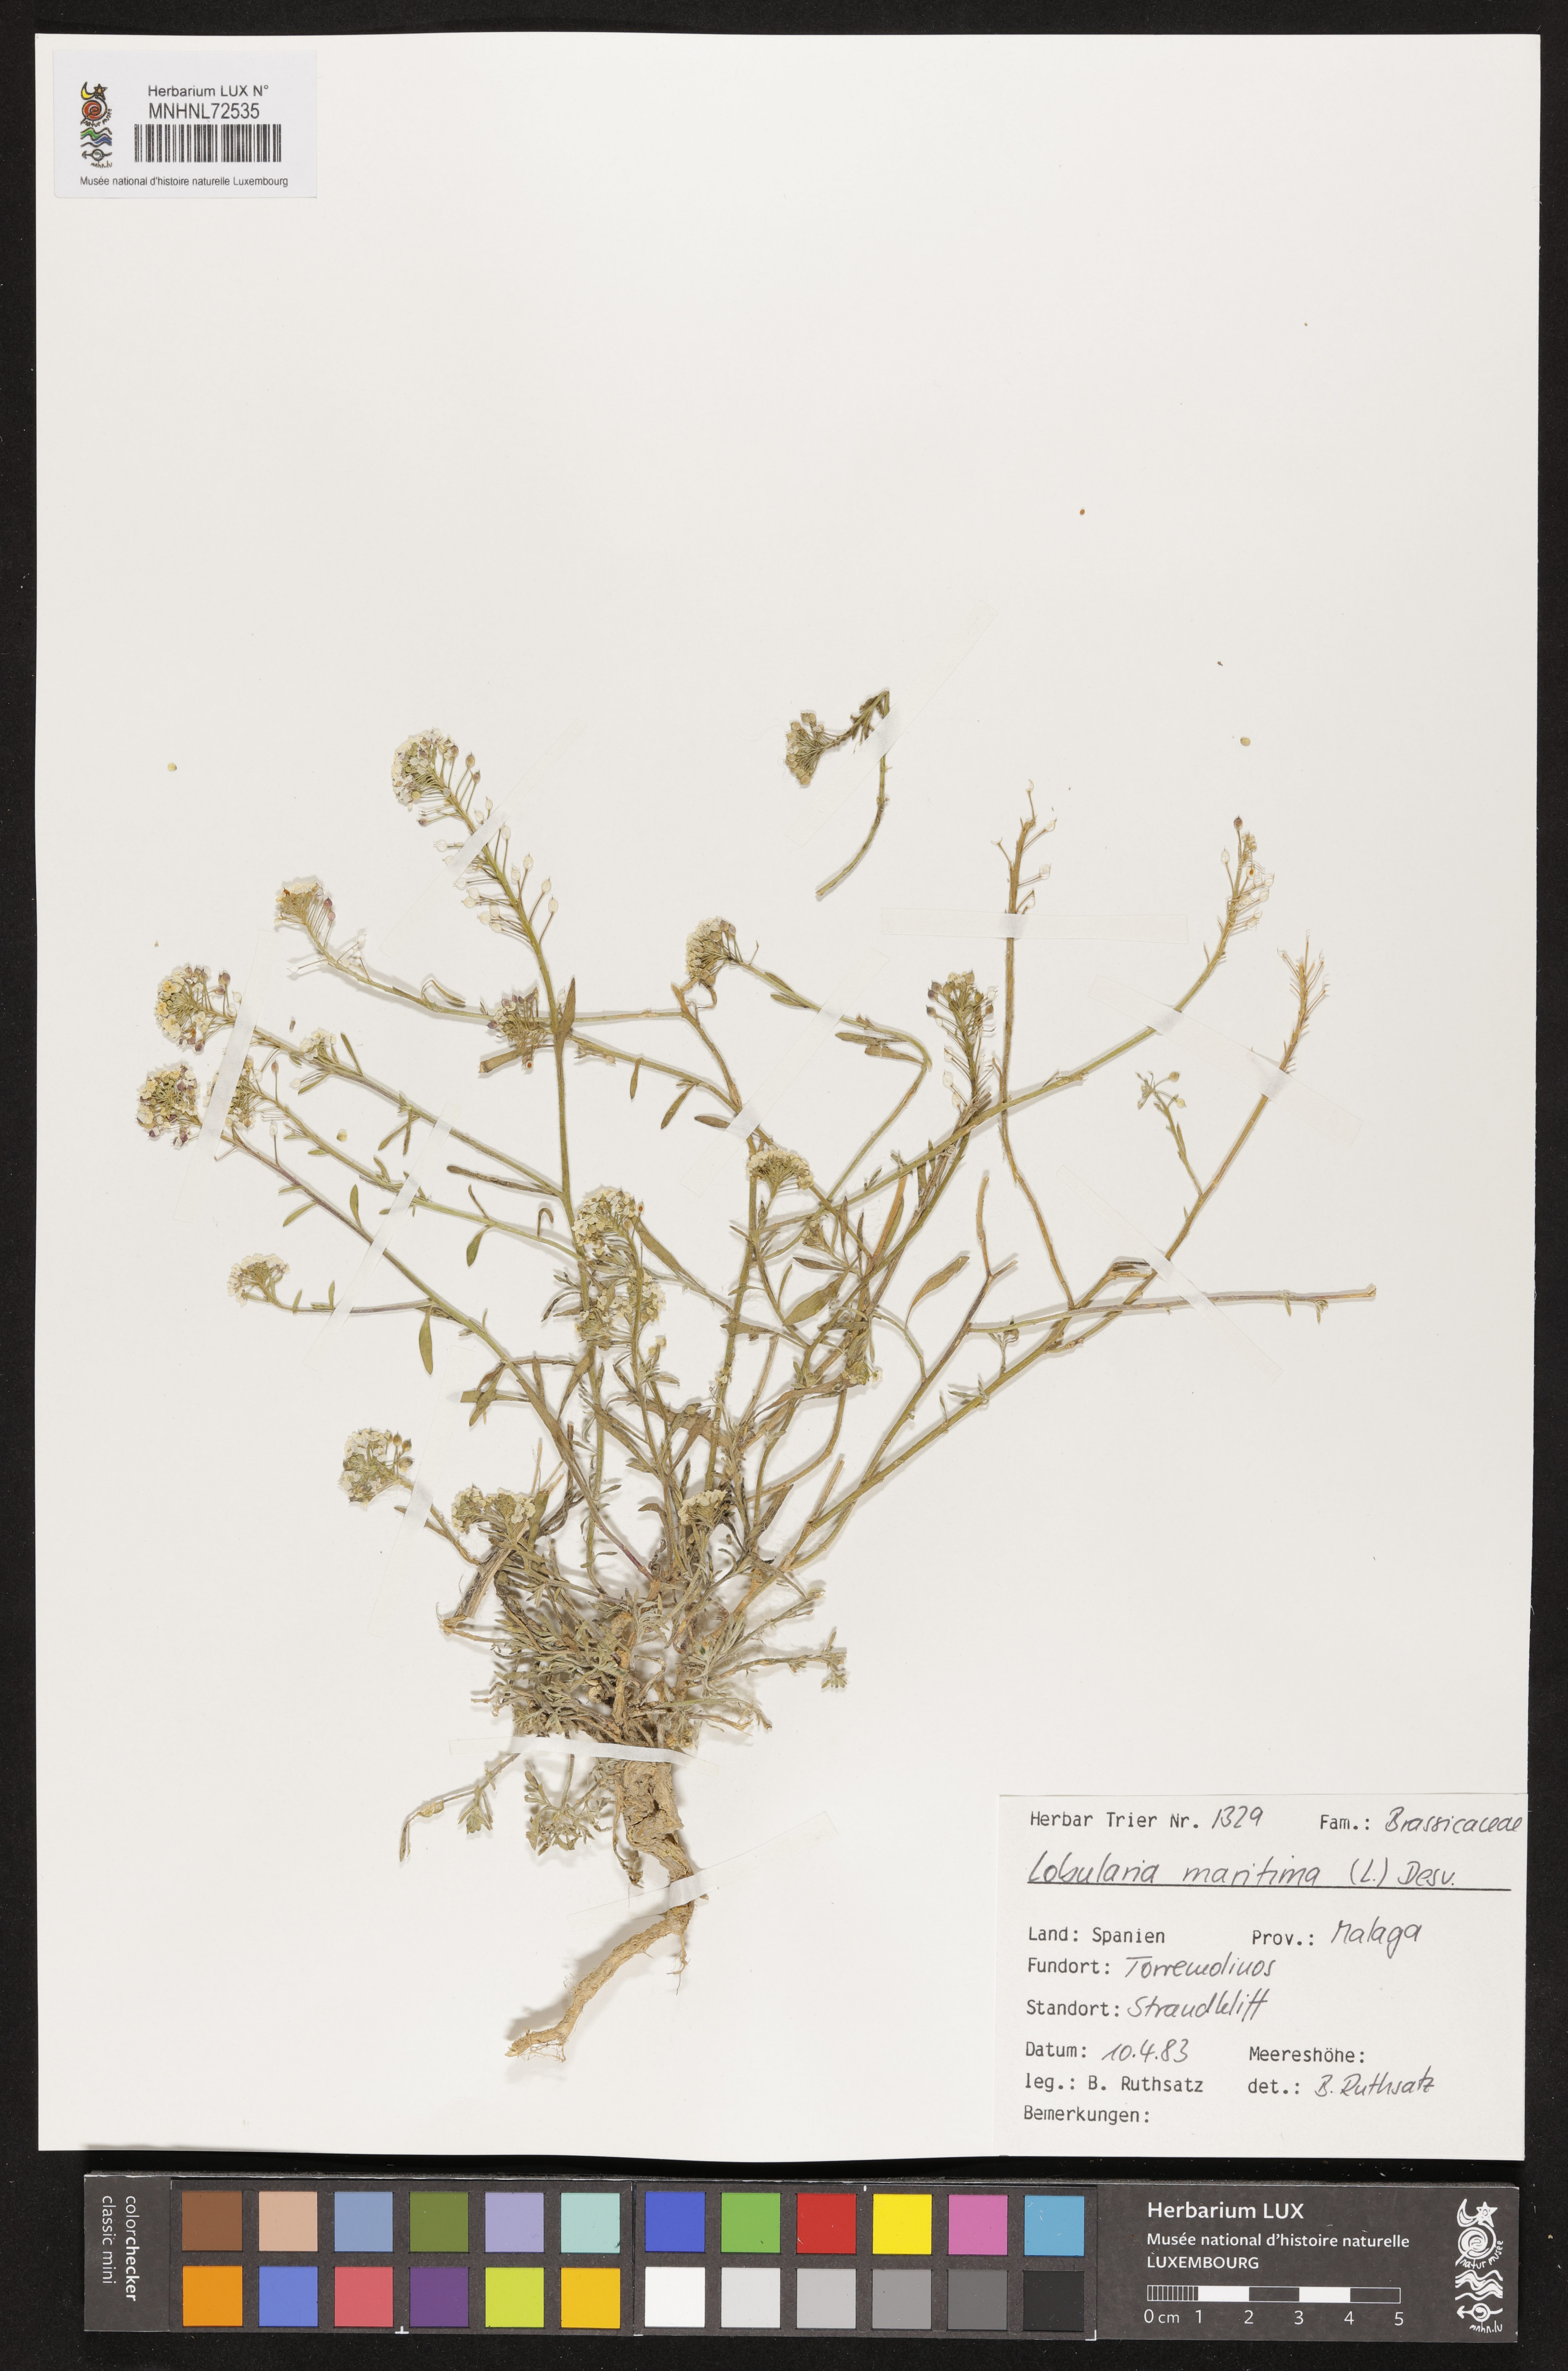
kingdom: Plantae
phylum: Tracheophyta
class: Magnoliopsida
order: Brassicales
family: Brassicaceae
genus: Lobularia
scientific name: Lobularia maritima
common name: Sweet alison
